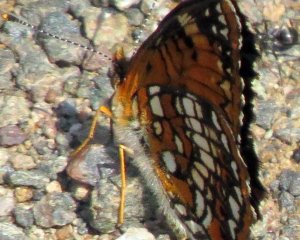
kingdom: Animalia
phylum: Arthropoda
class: Insecta
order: Lepidoptera
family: Nymphalidae
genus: Chlosyne
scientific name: Chlosyne harrisii
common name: Harris's Checkerspot
